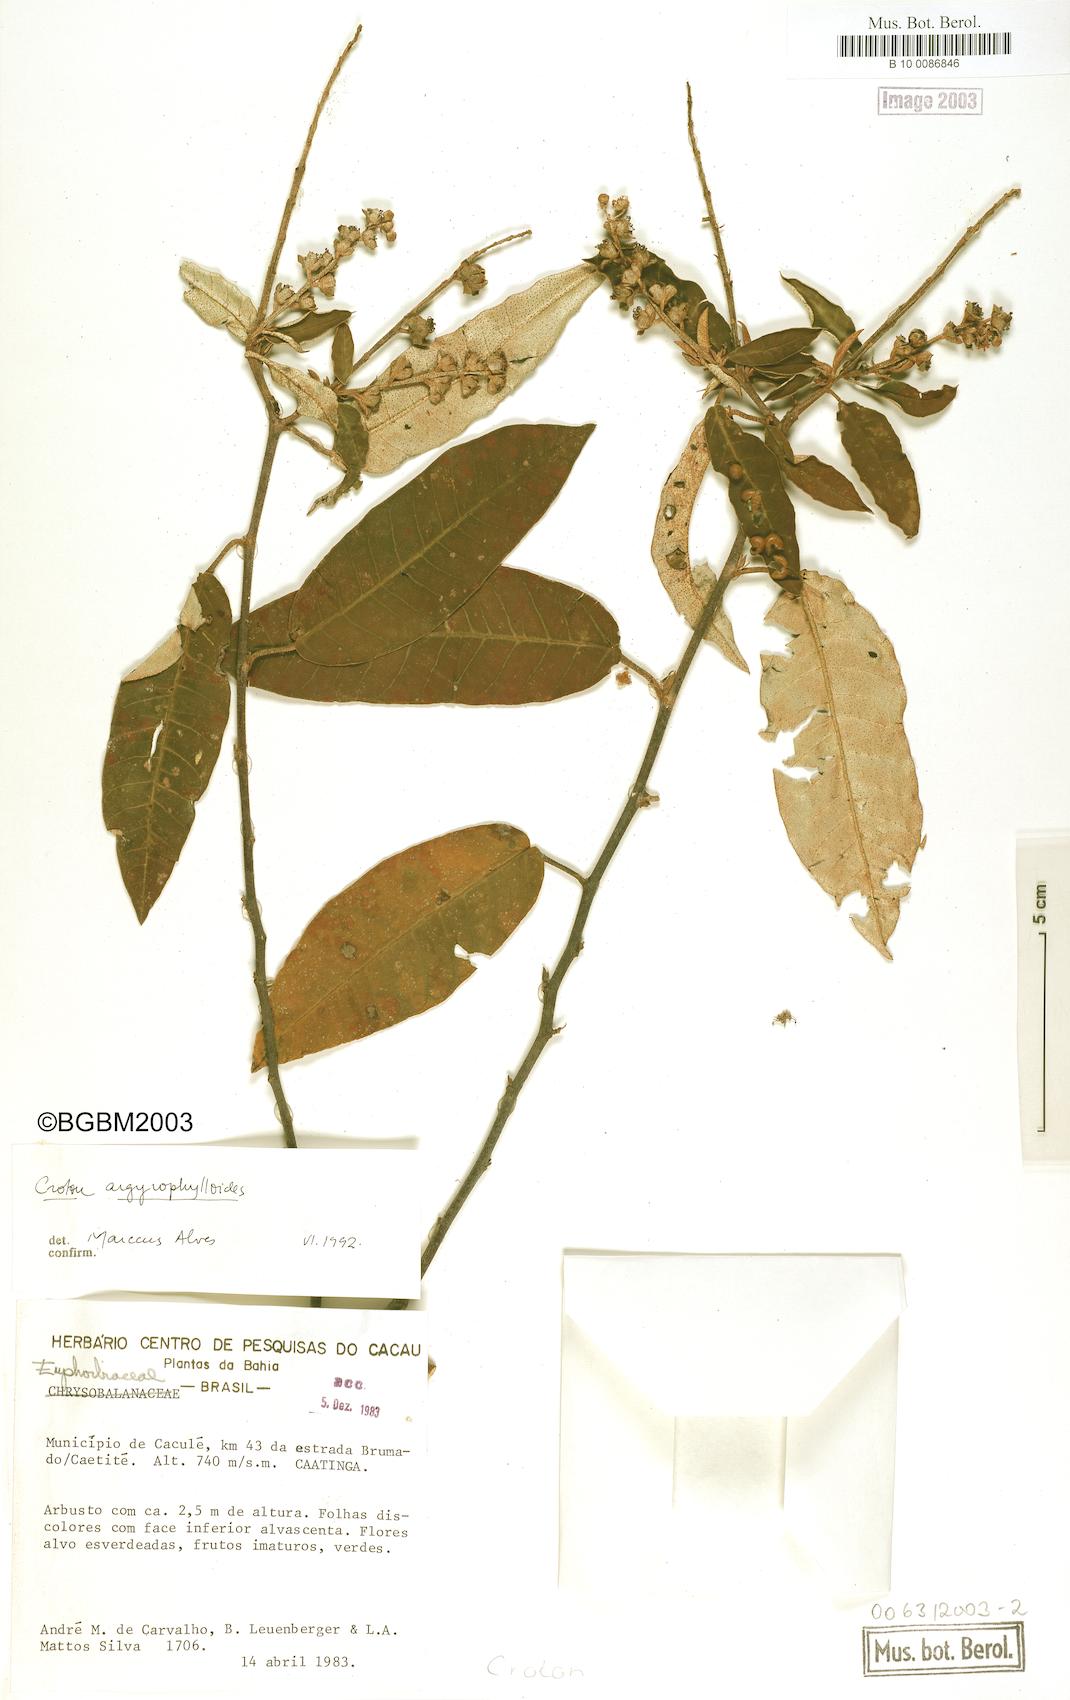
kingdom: Plantae
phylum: Tracheophyta
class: Magnoliopsida
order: Malpighiales
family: Euphorbiaceae
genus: Croton
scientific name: Croton tricolor
